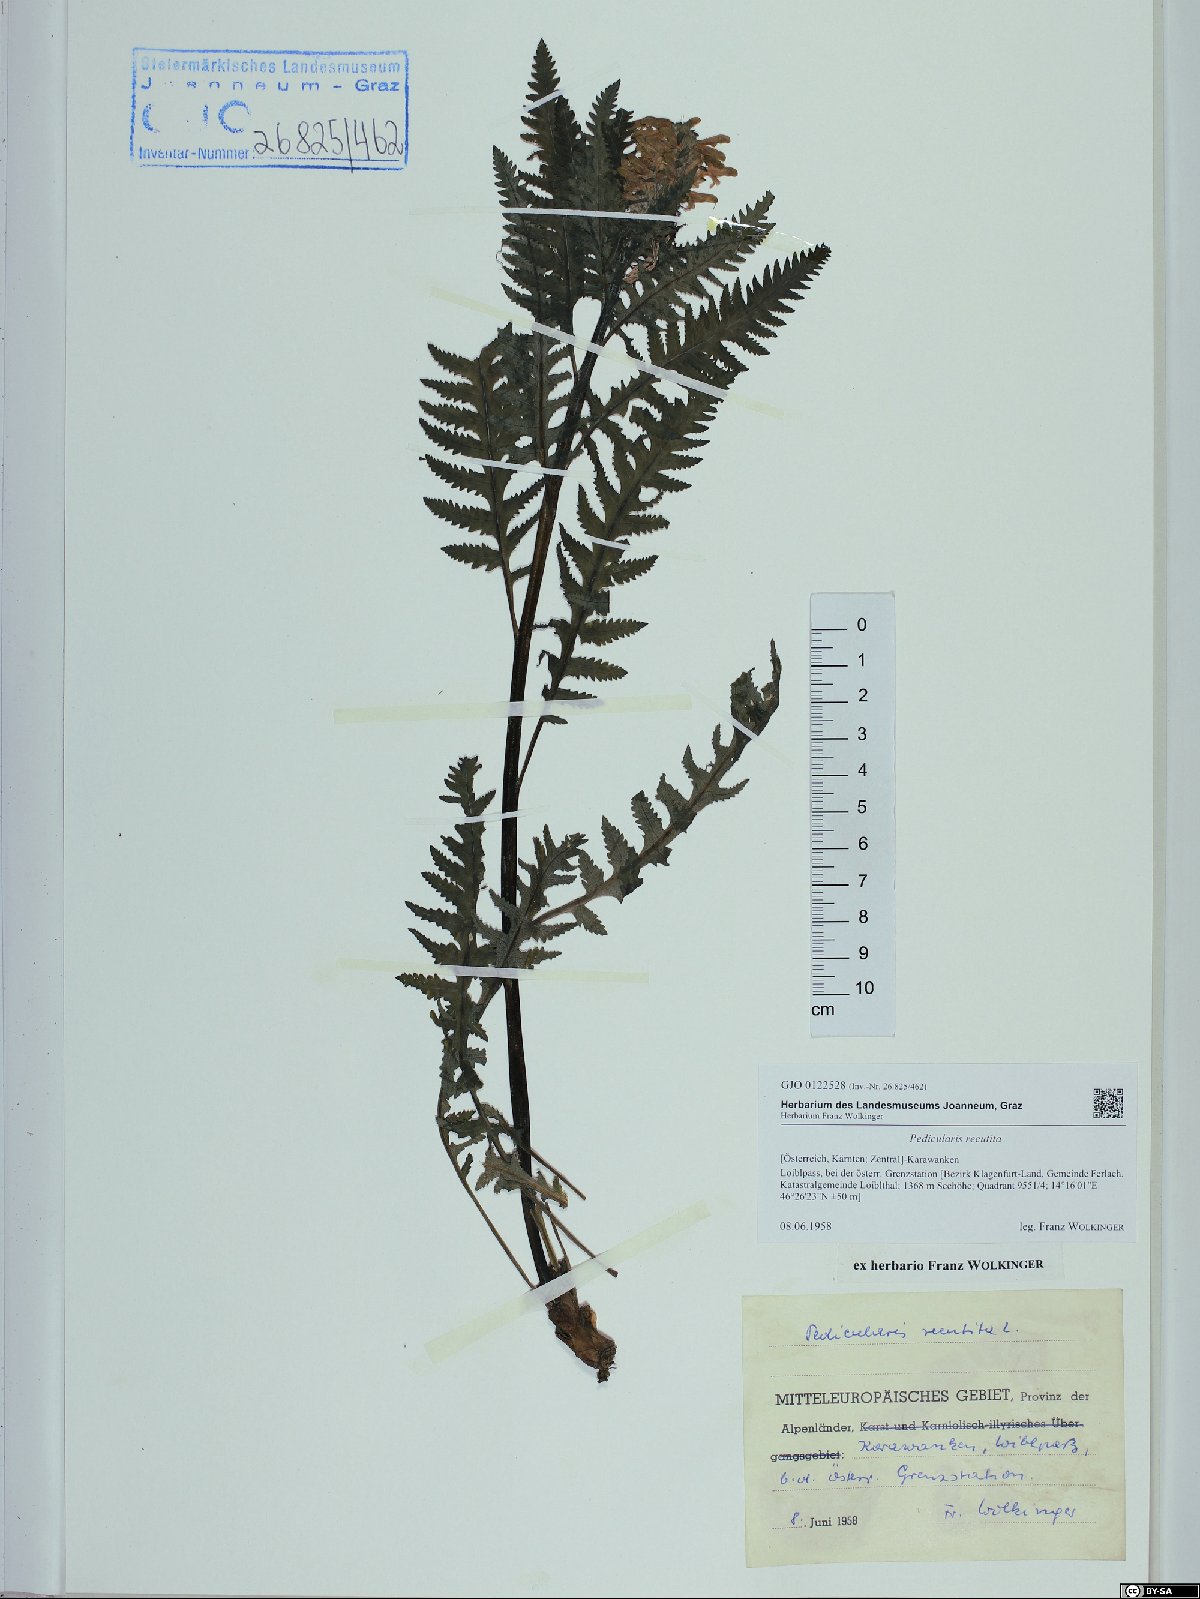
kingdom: Plantae
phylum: Tracheophyta
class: Magnoliopsida
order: Lamiales
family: Orobanchaceae
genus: Pedicularis
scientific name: Pedicularis recutita
